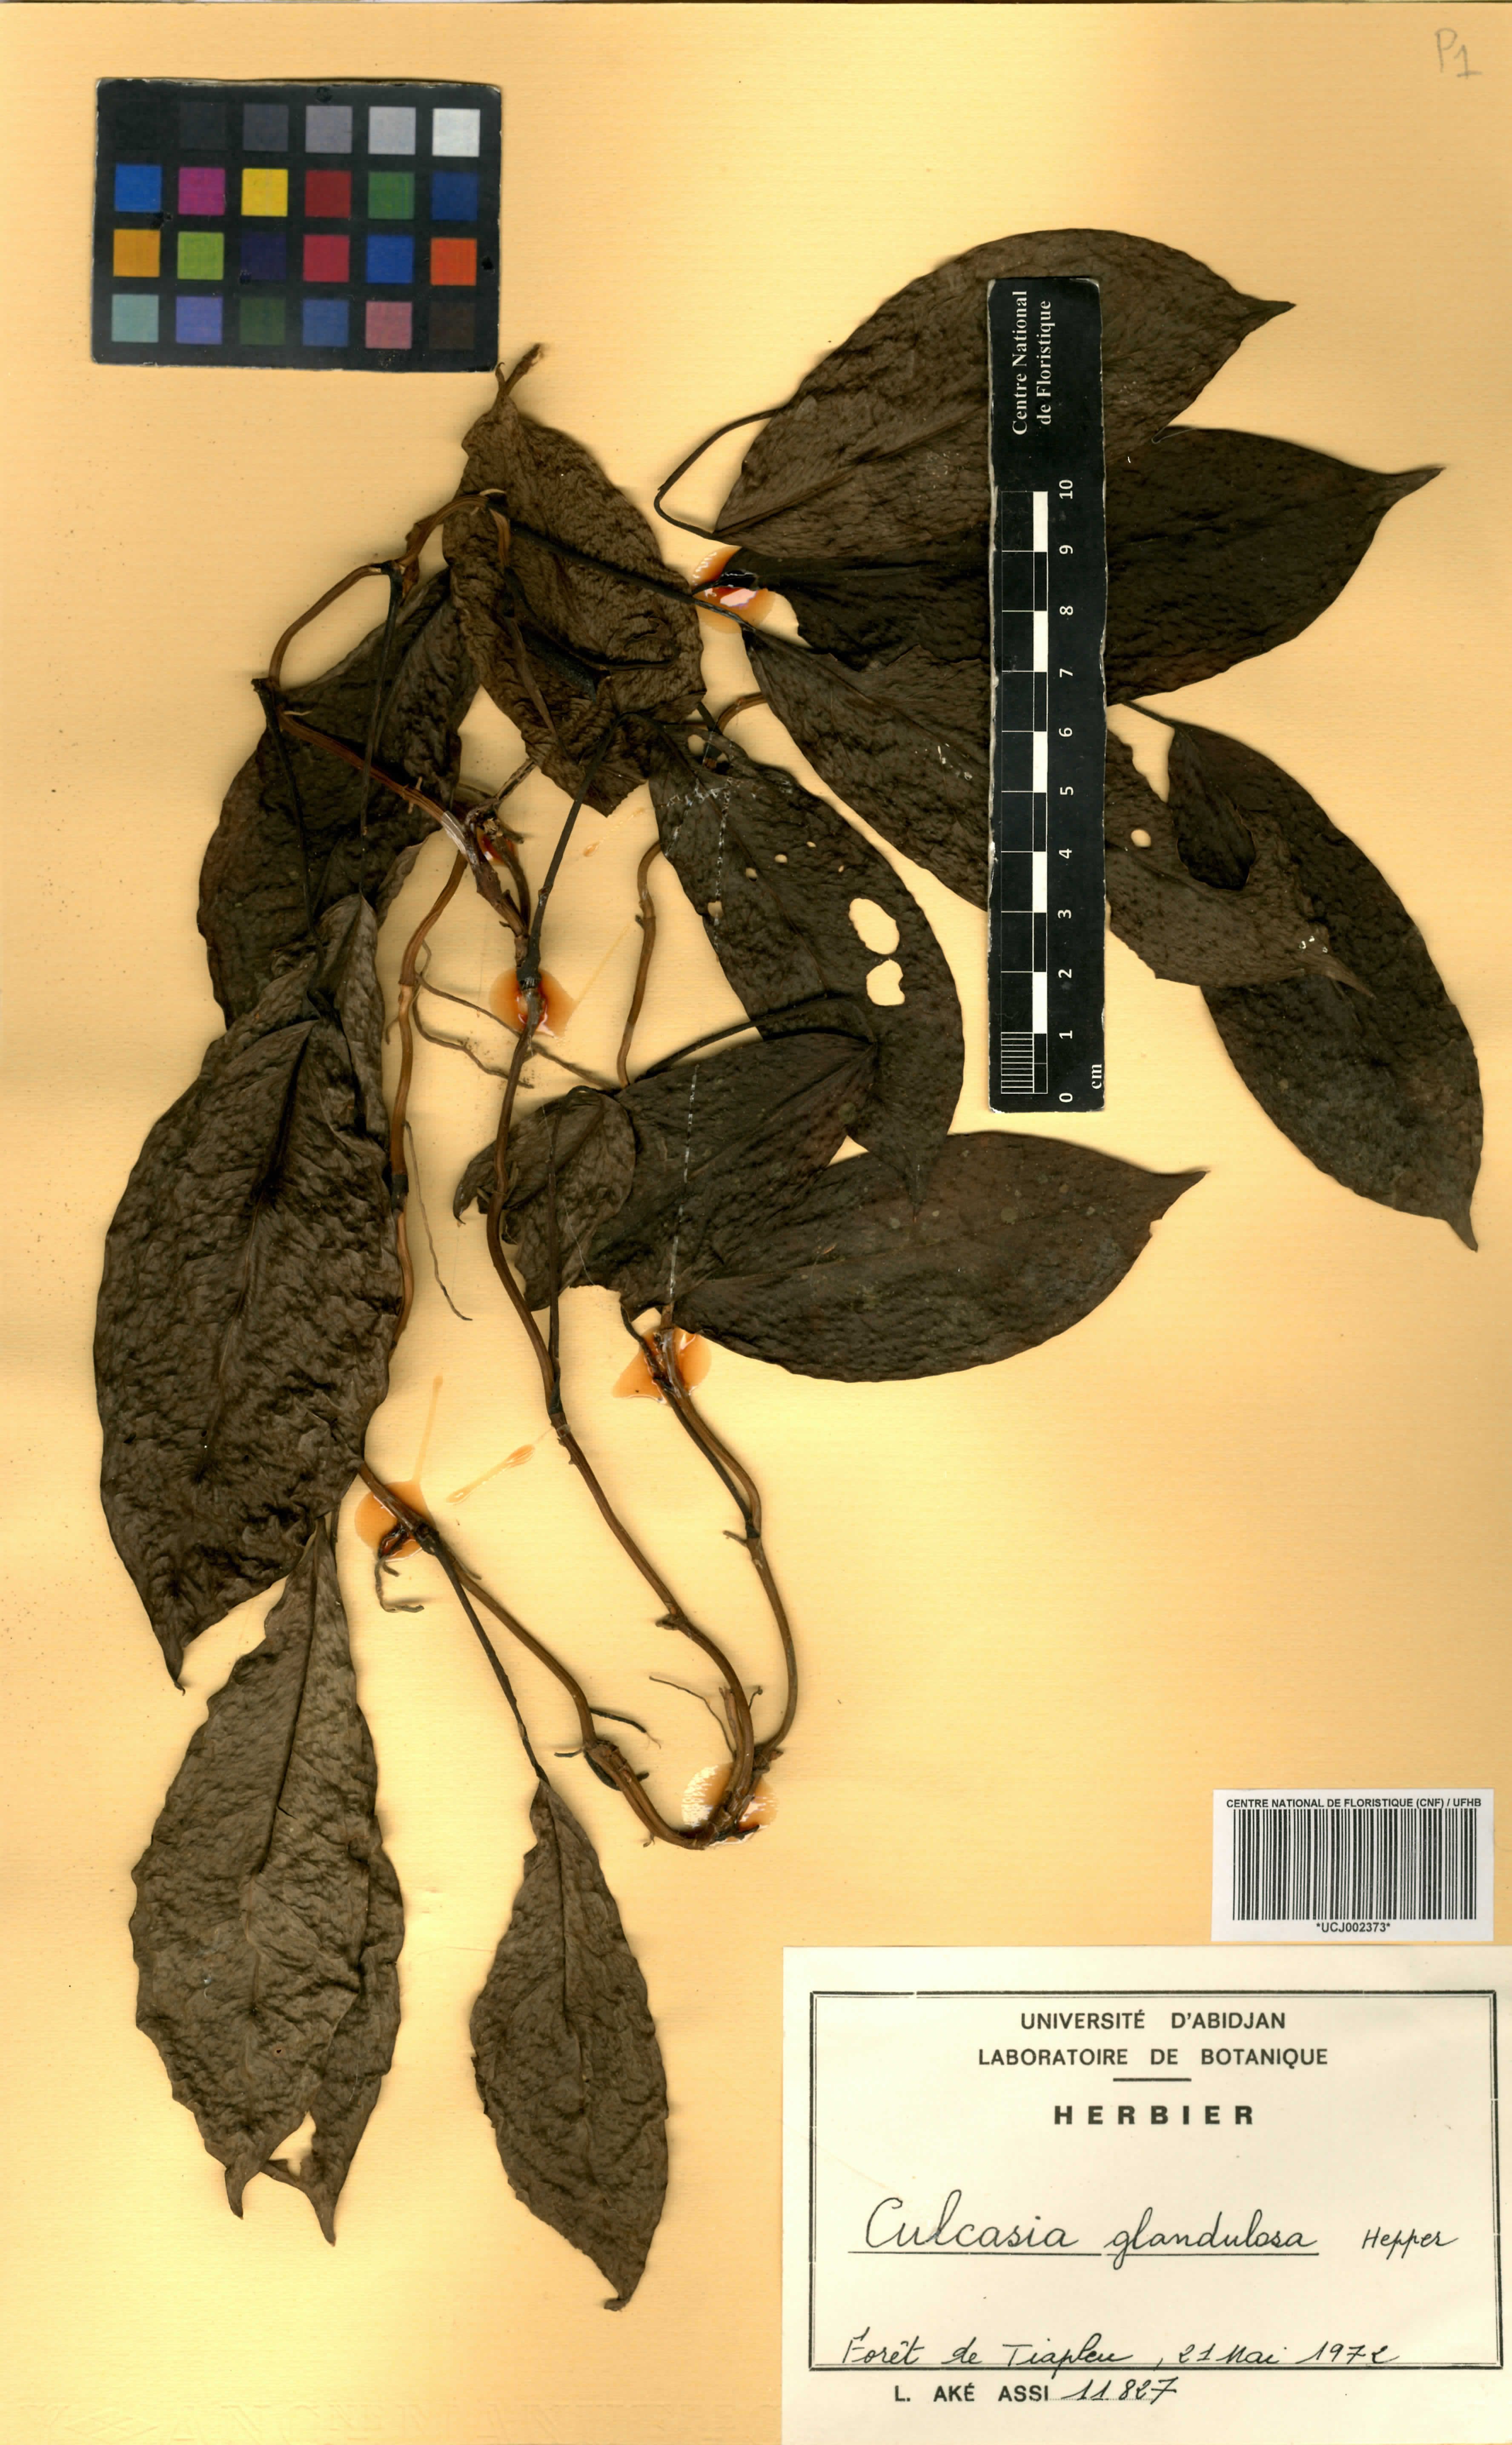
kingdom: Plantae
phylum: Tracheophyta
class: Liliopsida
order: Alismatales
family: Araceae
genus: Culcasia
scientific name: Culcasia glandulosa
